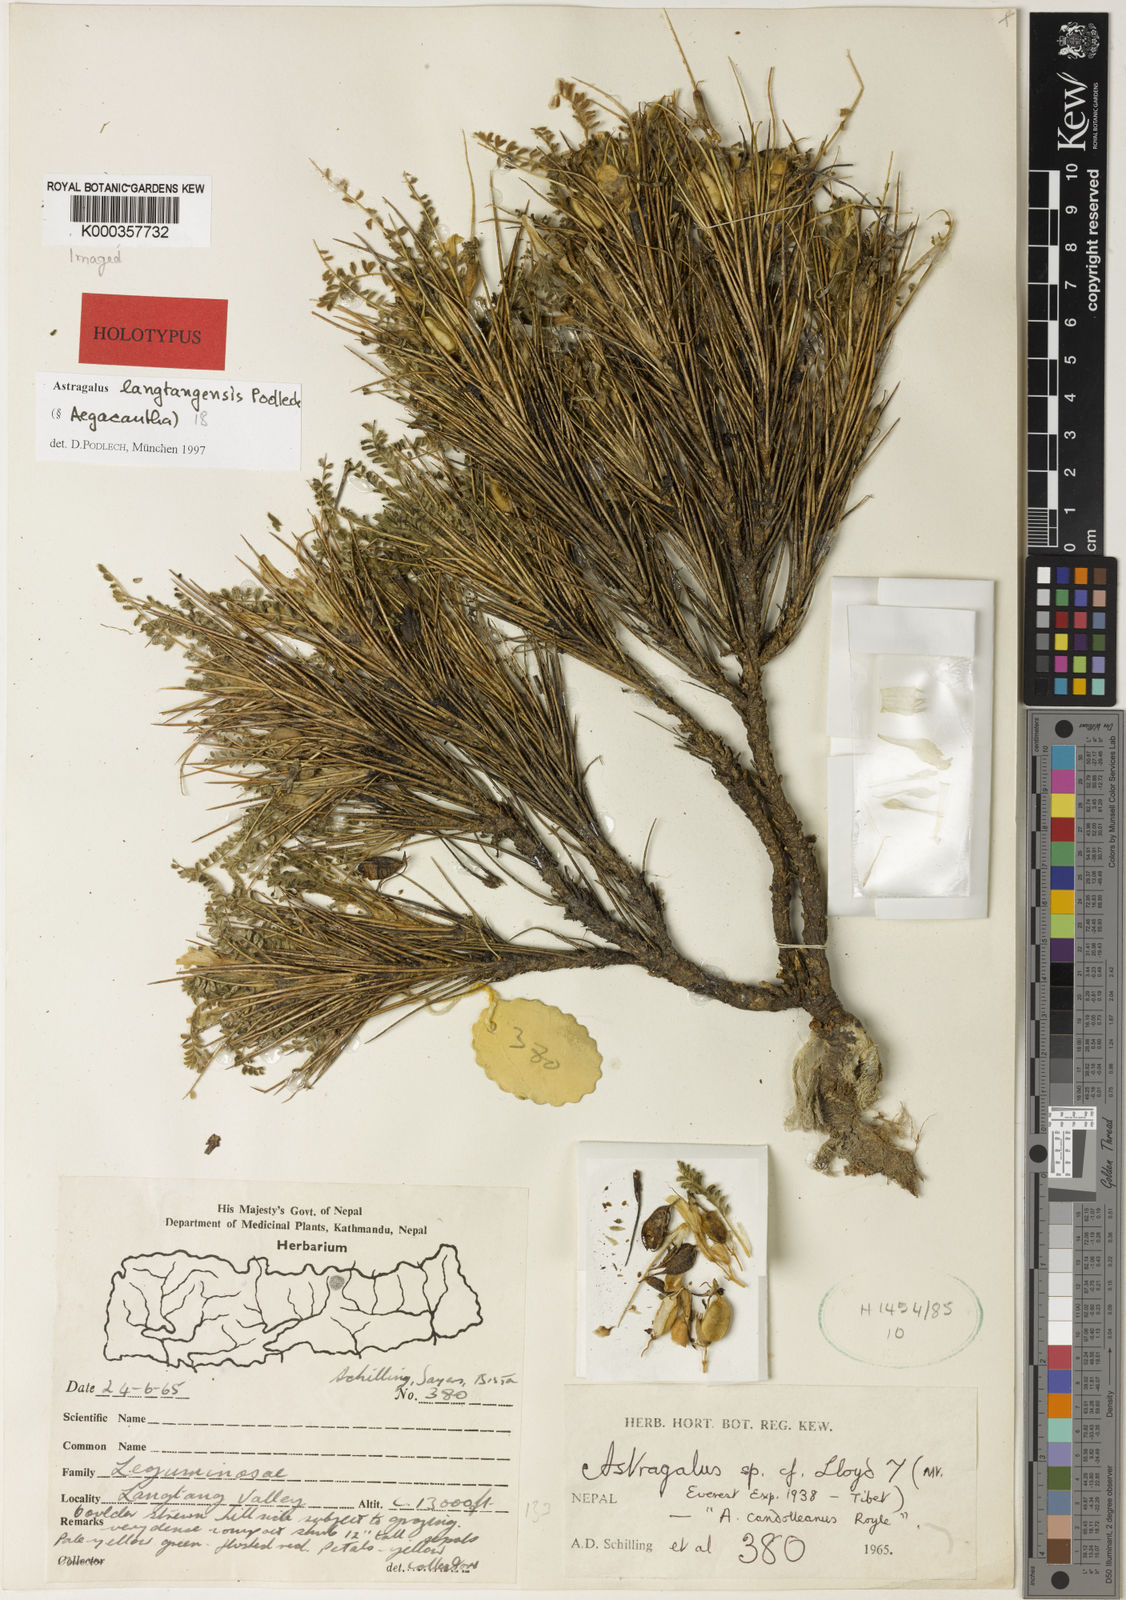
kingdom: Plantae
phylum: Tracheophyta
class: Magnoliopsida
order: Fabales
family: Fabaceae
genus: Astragalus
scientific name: Astragalus
